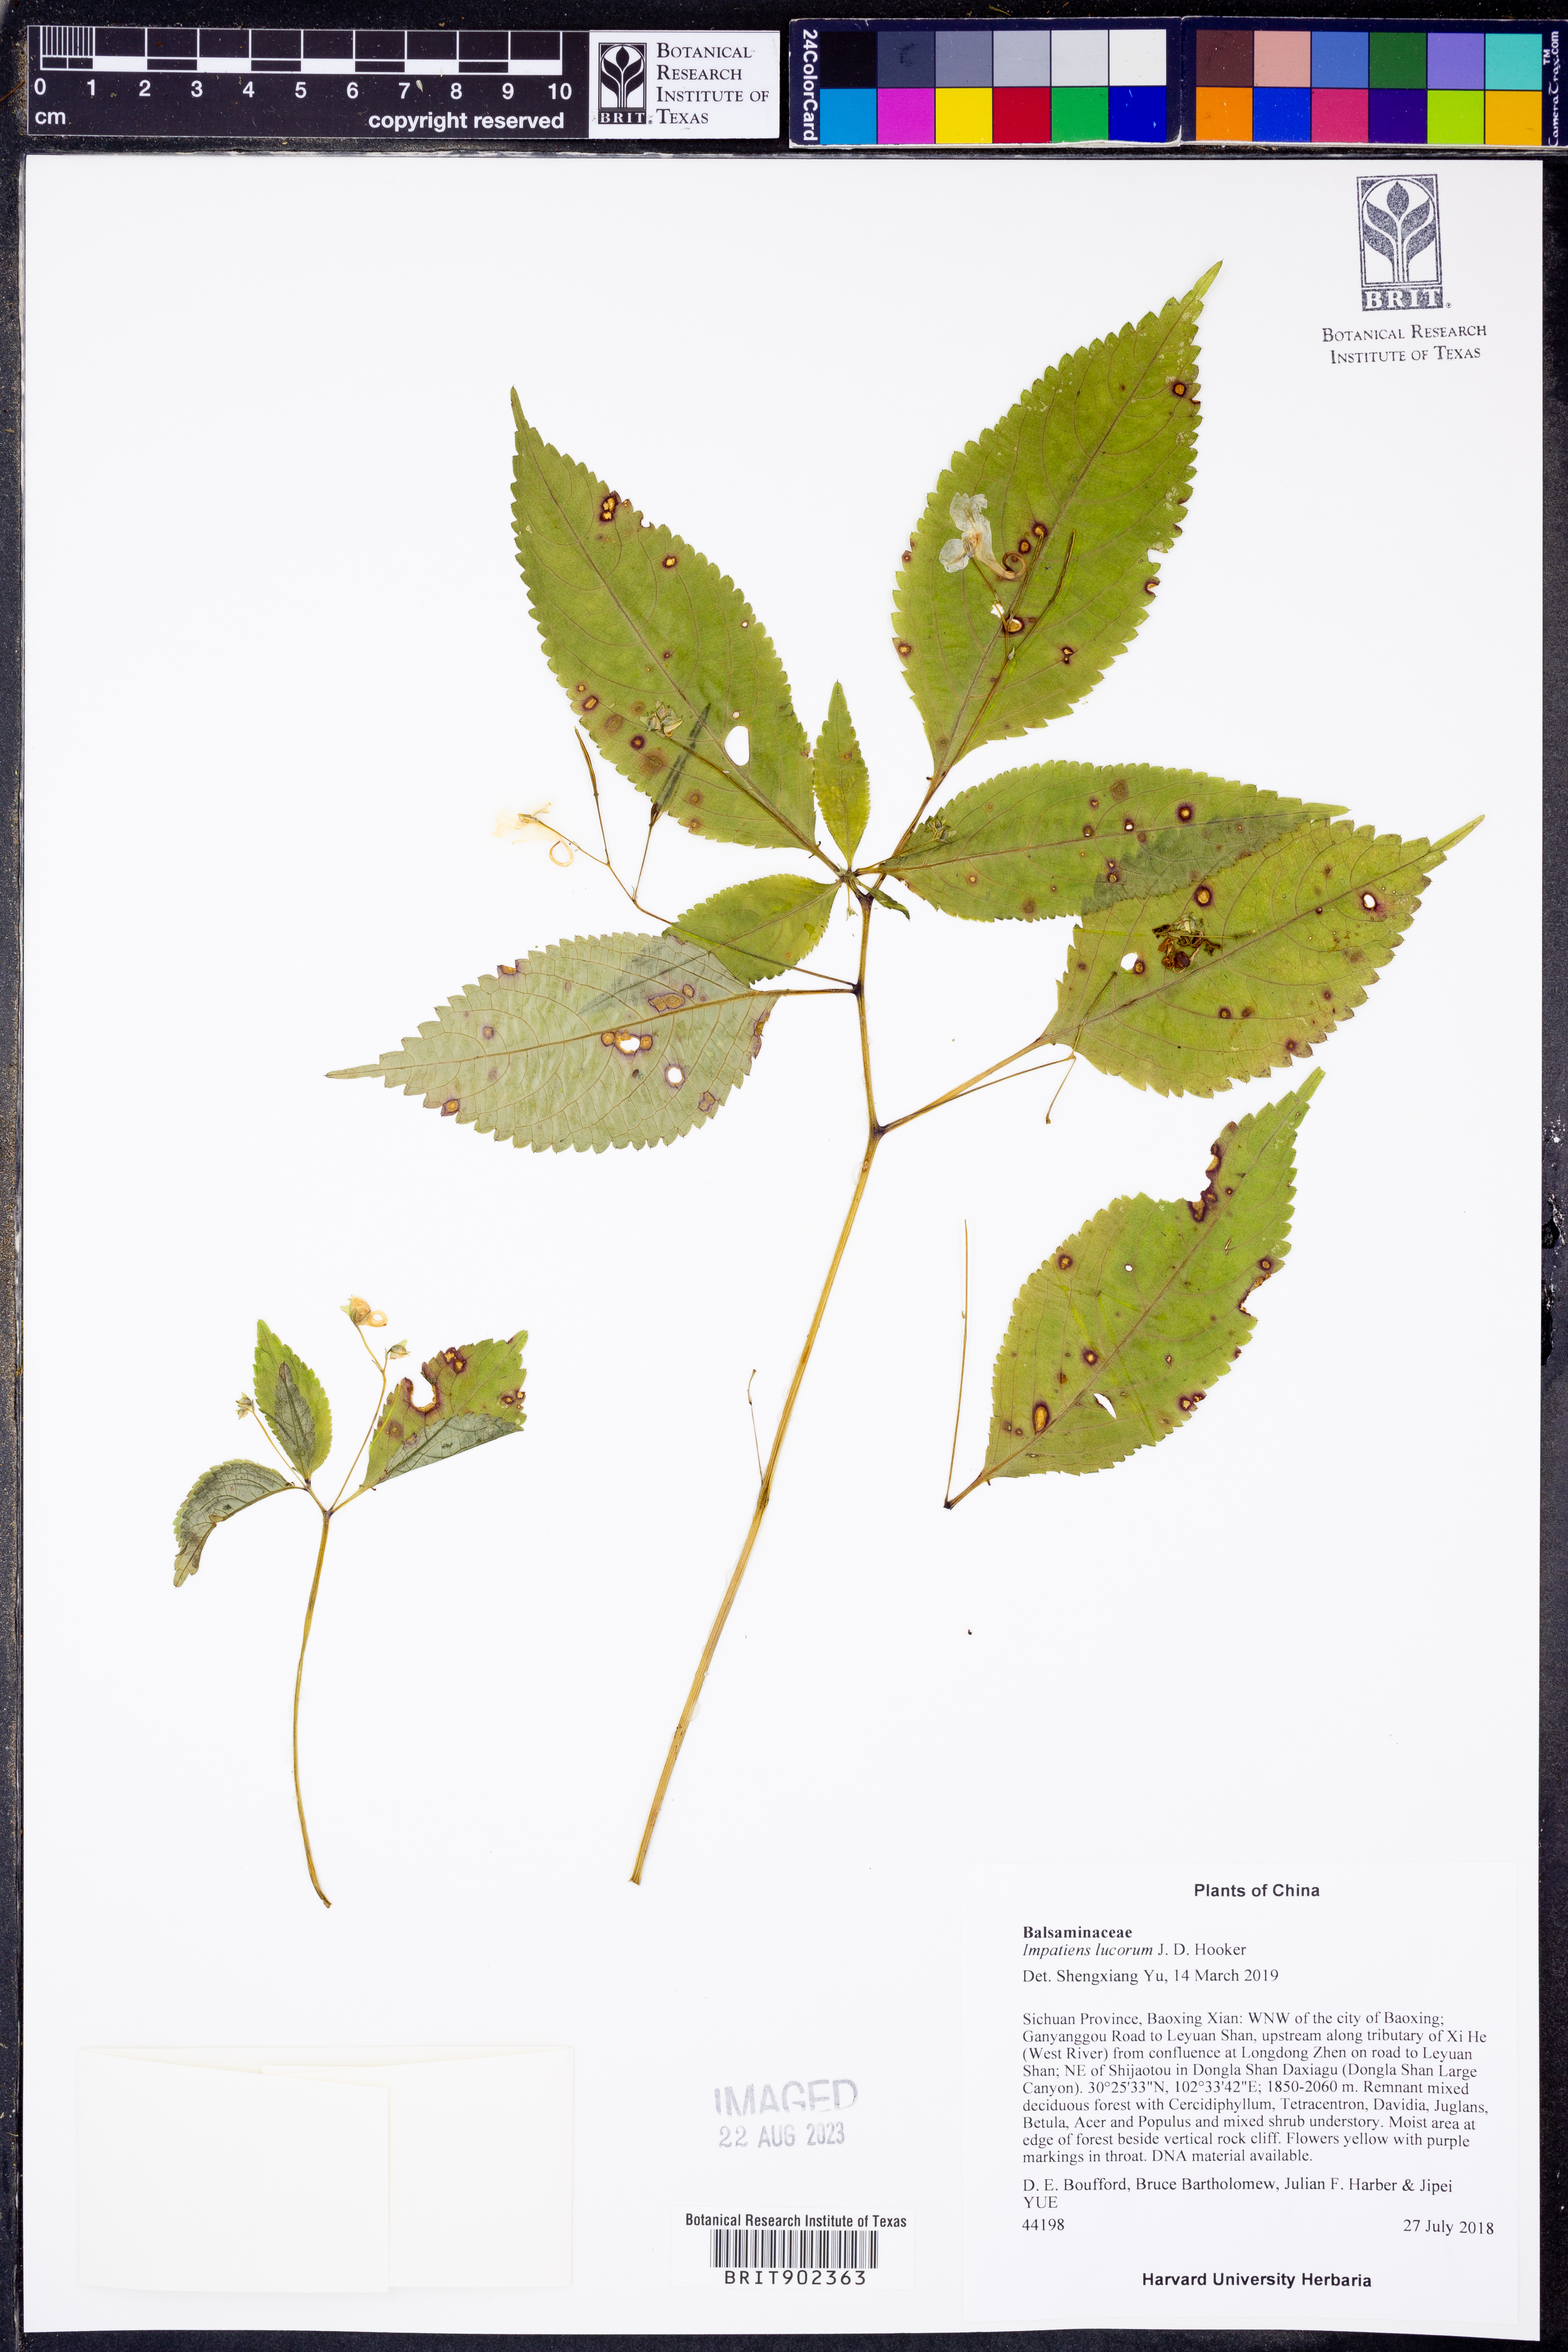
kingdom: Plantae
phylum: Tracheophyta
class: Magnoliopsida
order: Ericales
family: Balsaminaceae
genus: Impatiens
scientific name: Impatiens
